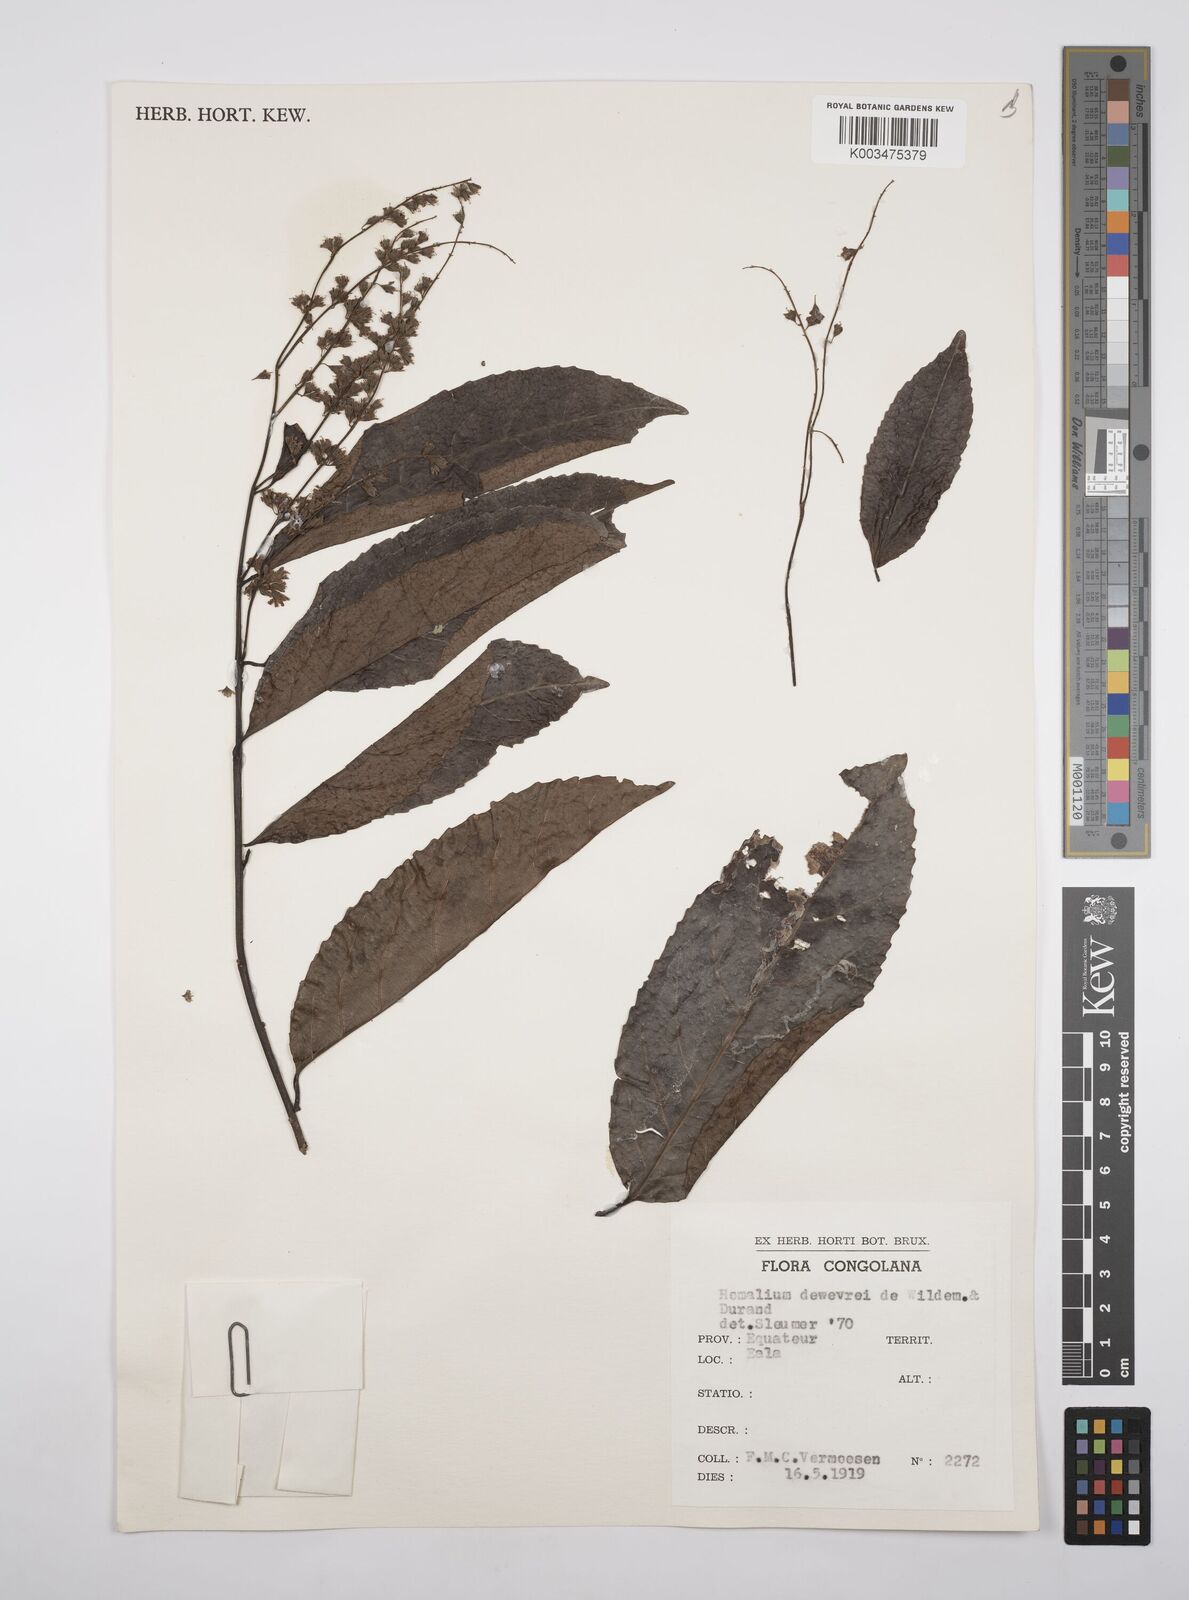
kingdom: Plantae
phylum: Tracheophyta
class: Magnoliopsida
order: Malpighiales
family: Salicaceae
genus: Homalium
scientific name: Homalium dewevrei
